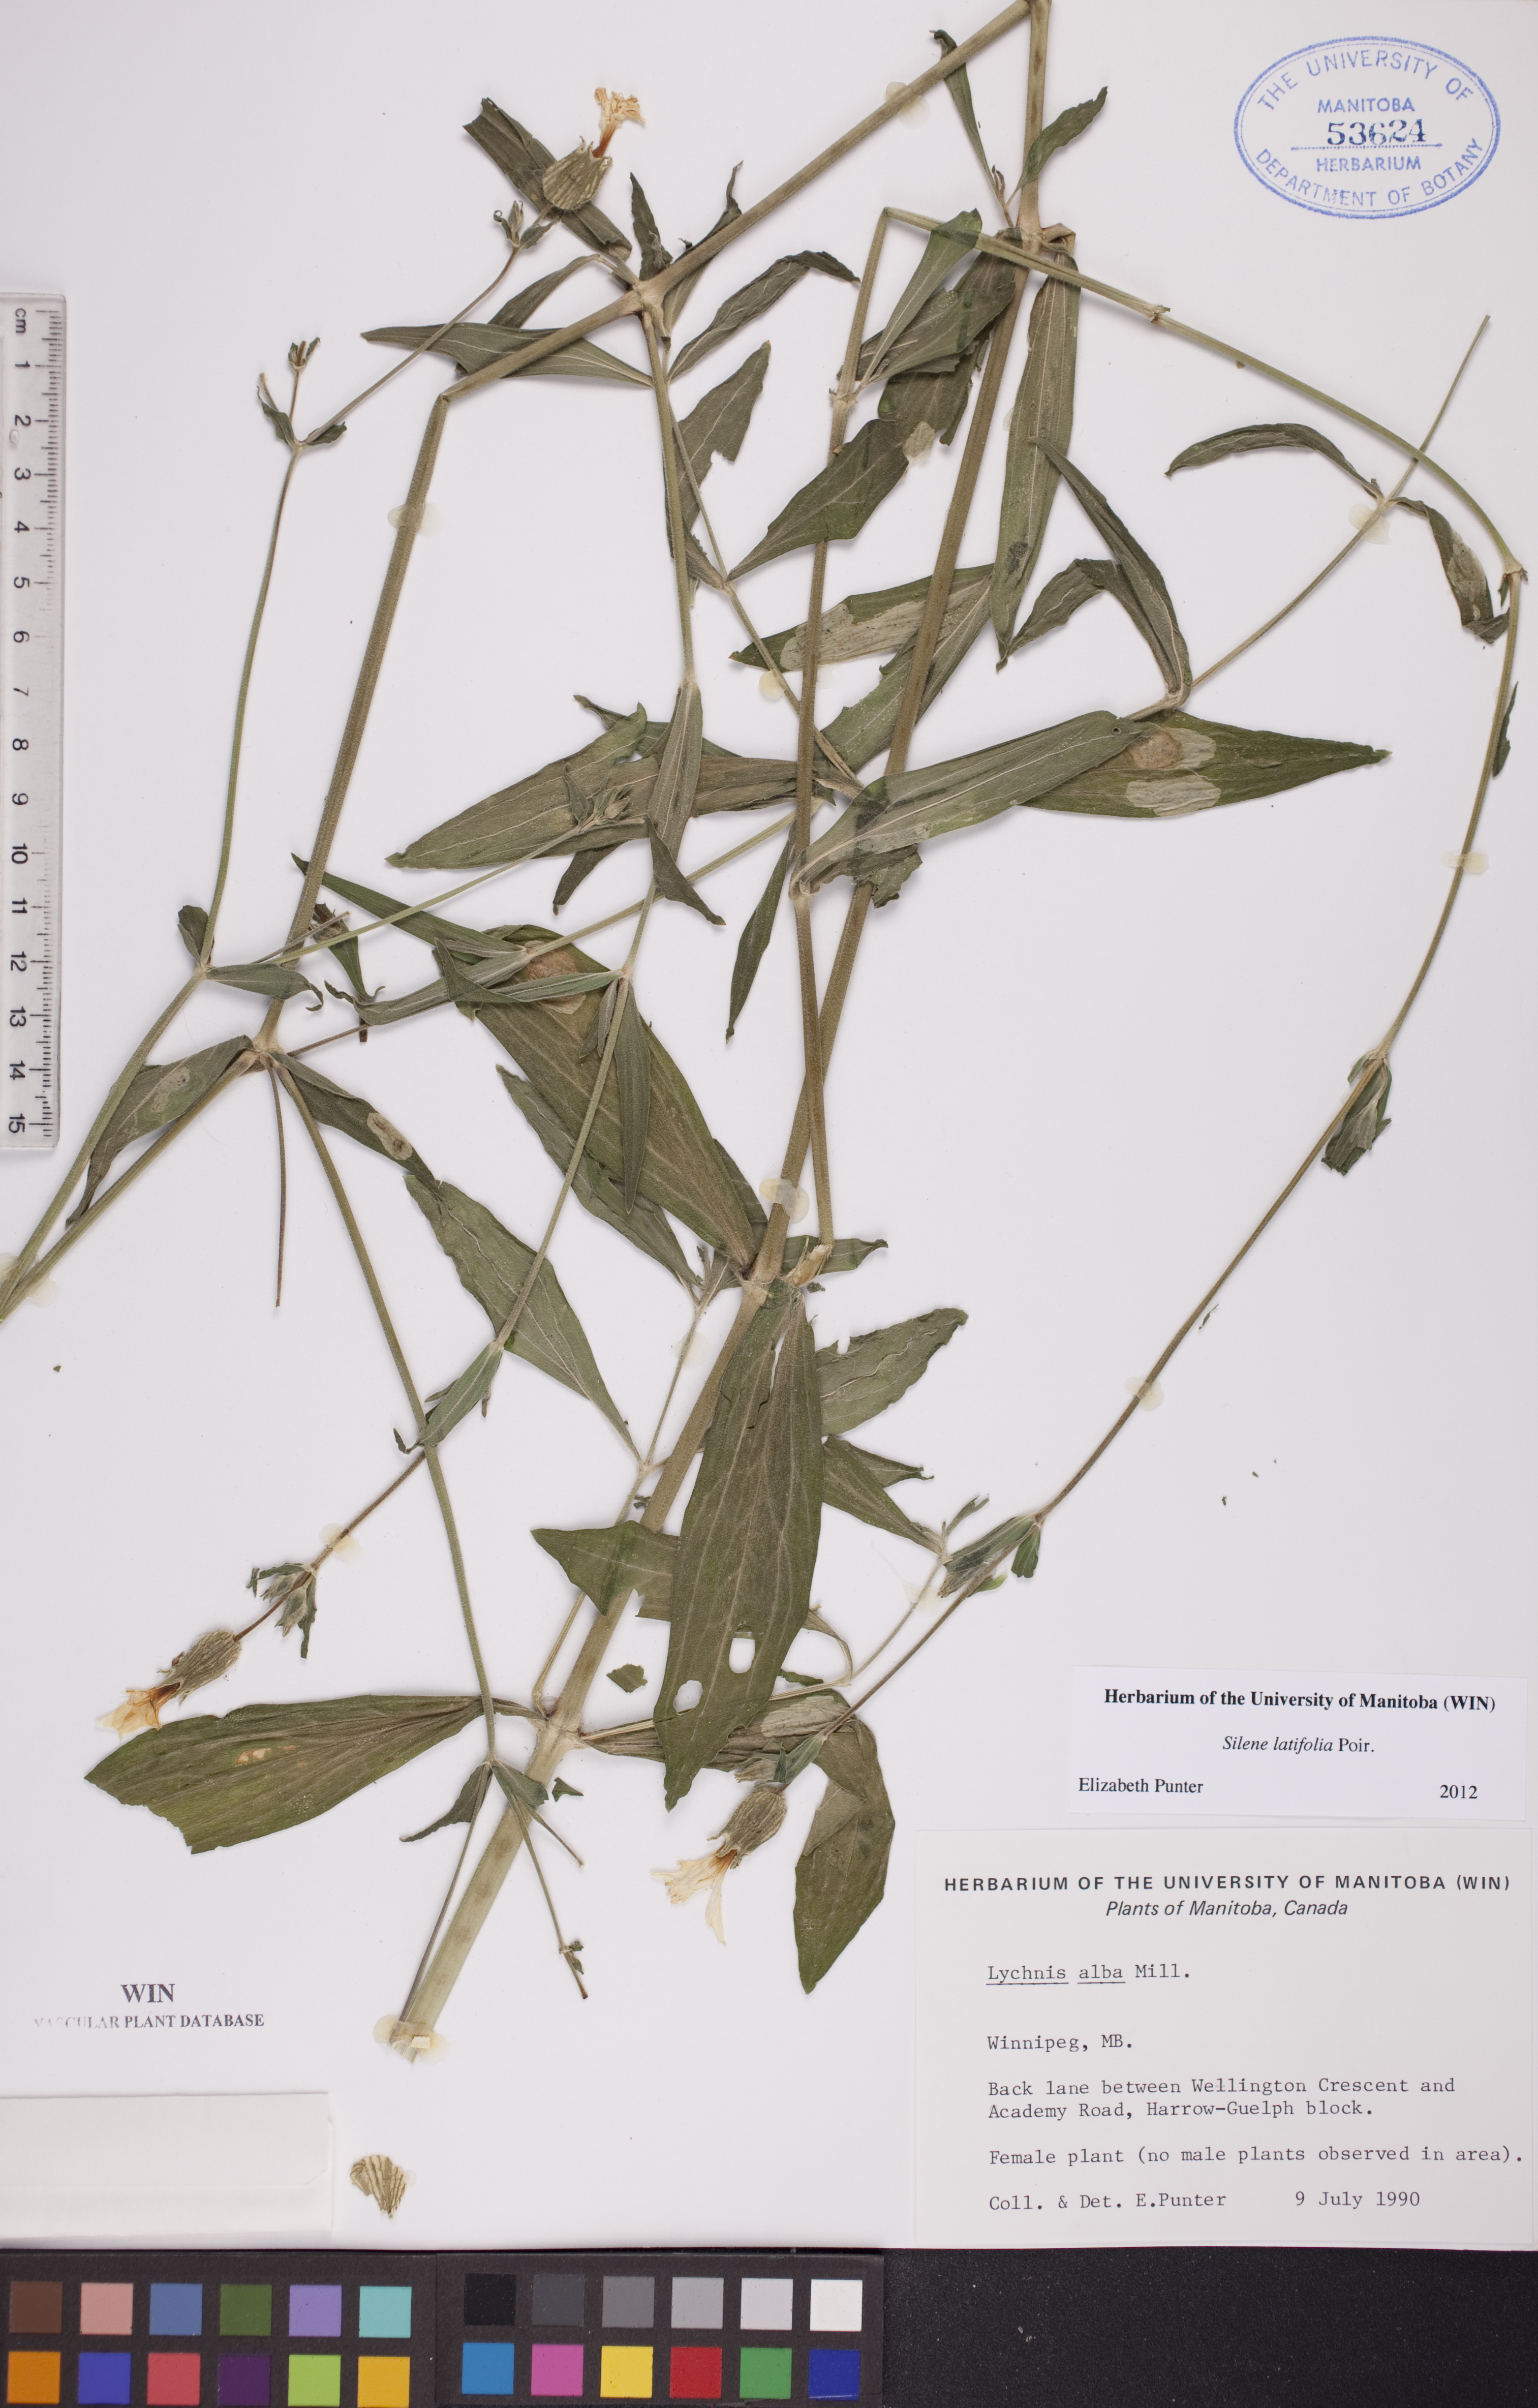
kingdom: Plantae
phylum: Tracheophyta
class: Magnoliopsida
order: Caryophyllales
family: Caryophyllaceae
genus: Silene
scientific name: Silene latifolia
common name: White campion
